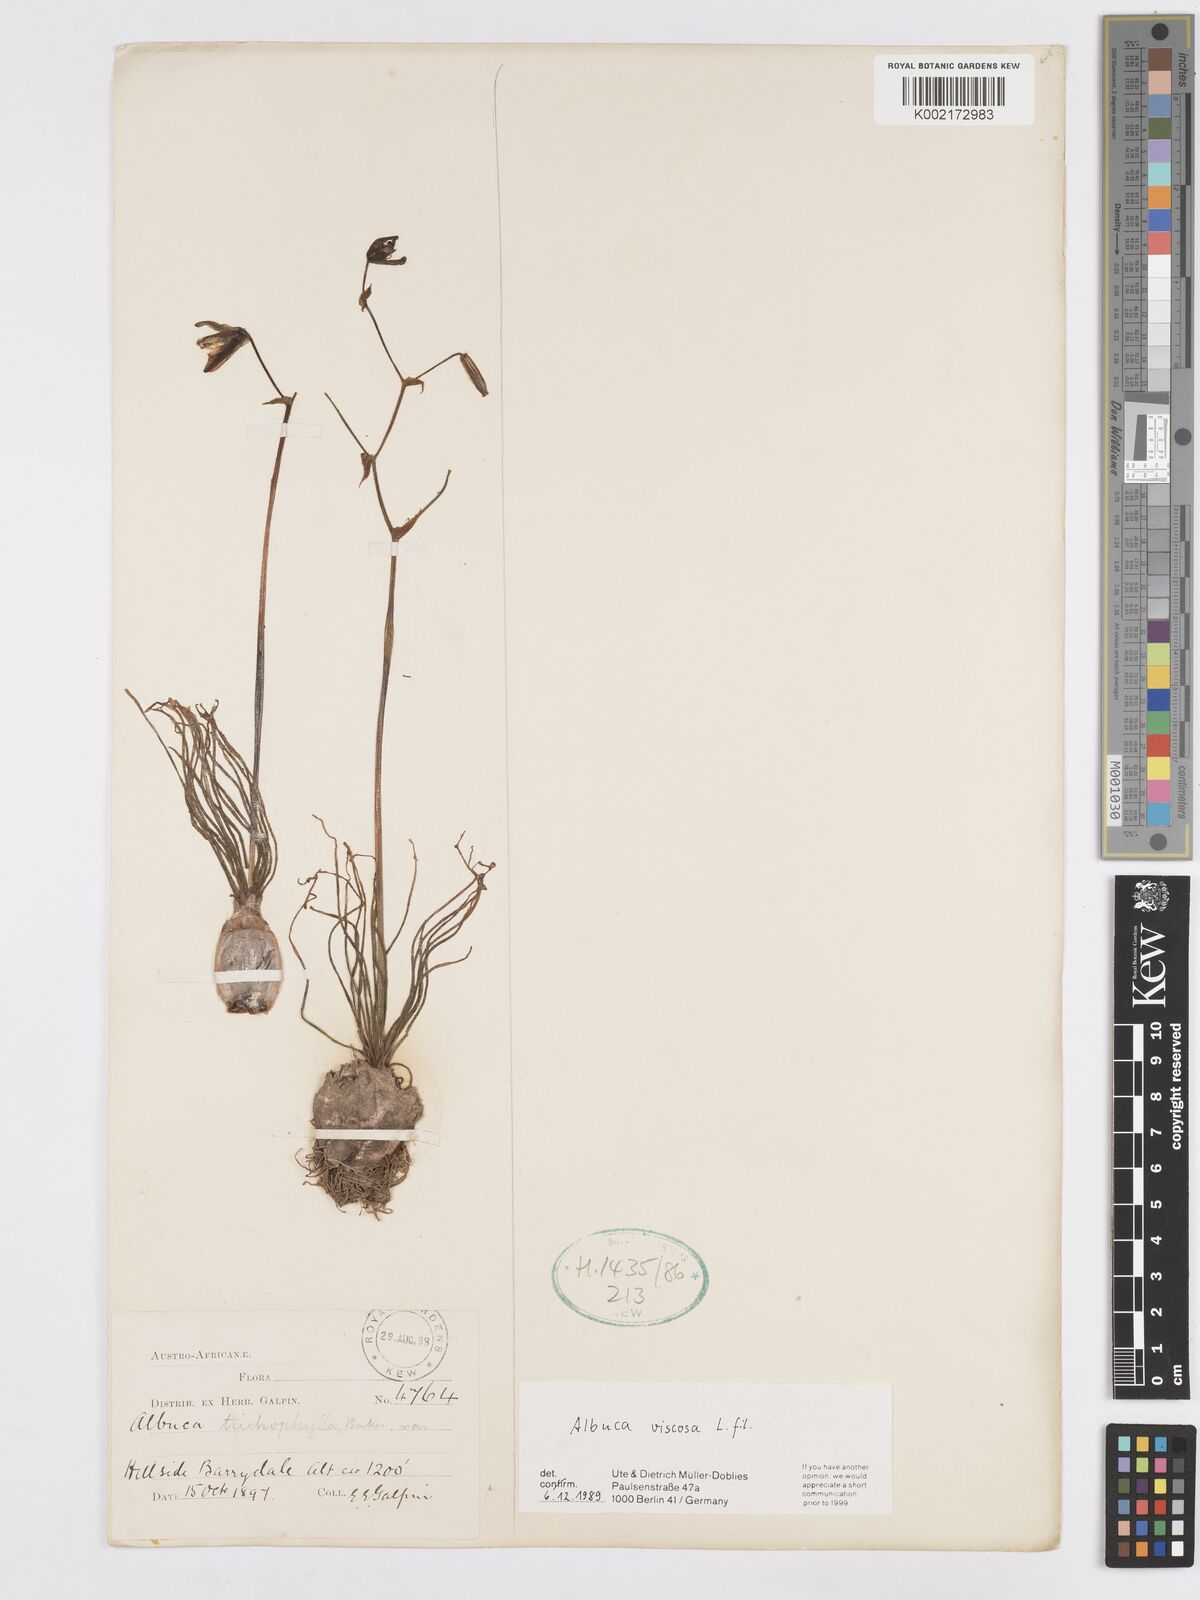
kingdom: Plantae
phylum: Tracheophyta
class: Liliopsida
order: Asparagales
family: Asparagaceae
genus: Albuca
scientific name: Albuca viscosa
